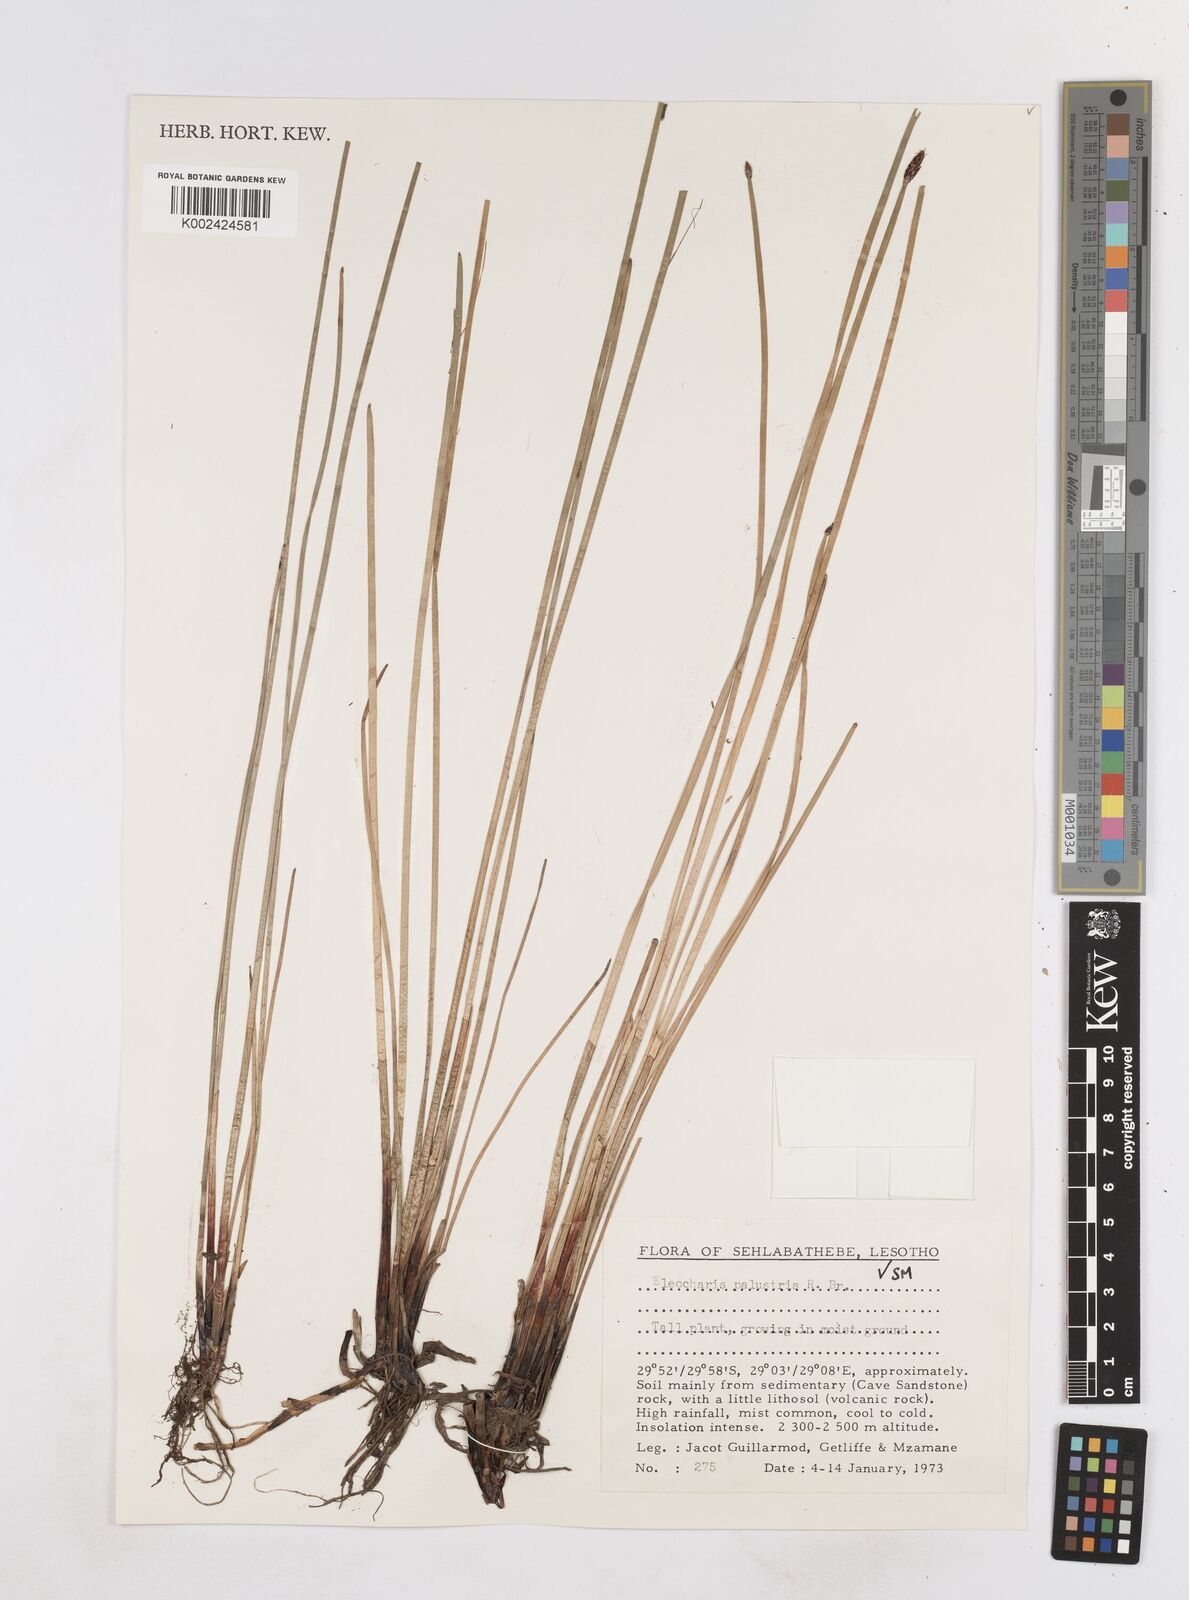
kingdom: Plantae
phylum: Tracheophyta
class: Liliopsida
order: Poales
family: Cyperaceae
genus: Eleocharis
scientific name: Eleocharis palustris
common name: Common spike-rush
